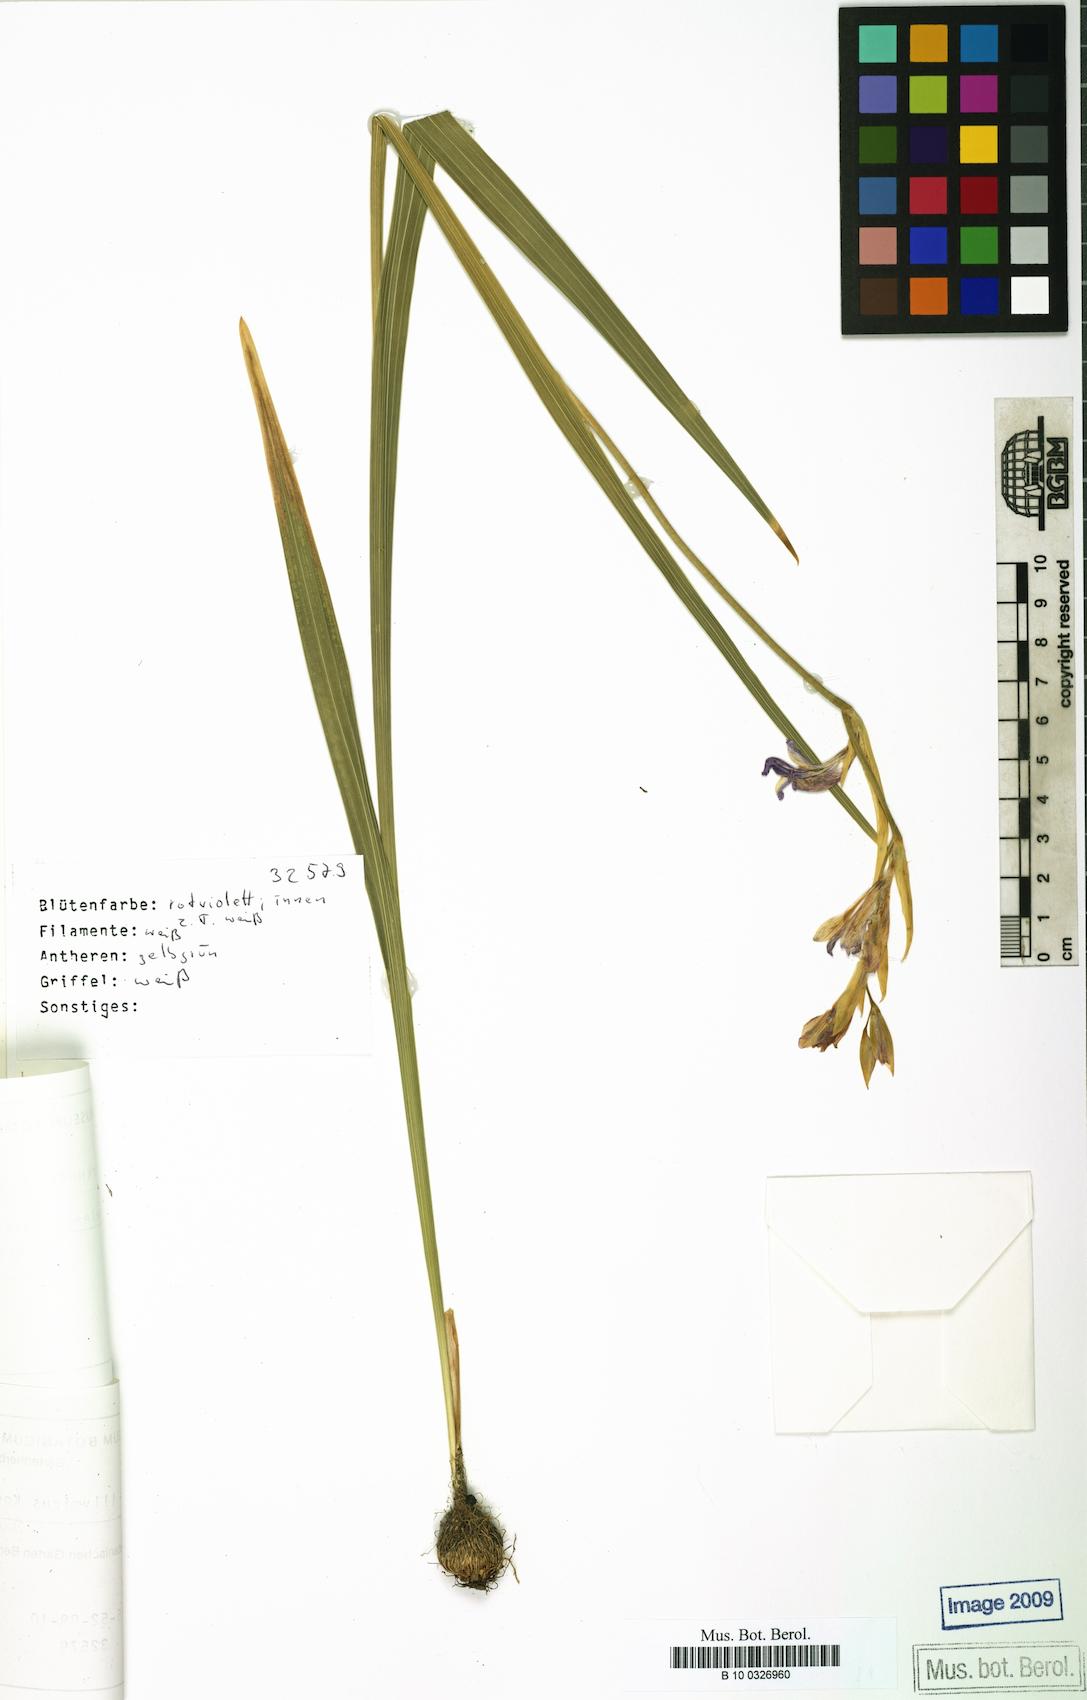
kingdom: Plantae
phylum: Tracheophyta
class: Liliopsida
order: Asparagales
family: Iridaceae
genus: Gladiolus
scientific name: Gladiolus illyricus
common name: Wild gladiolus
